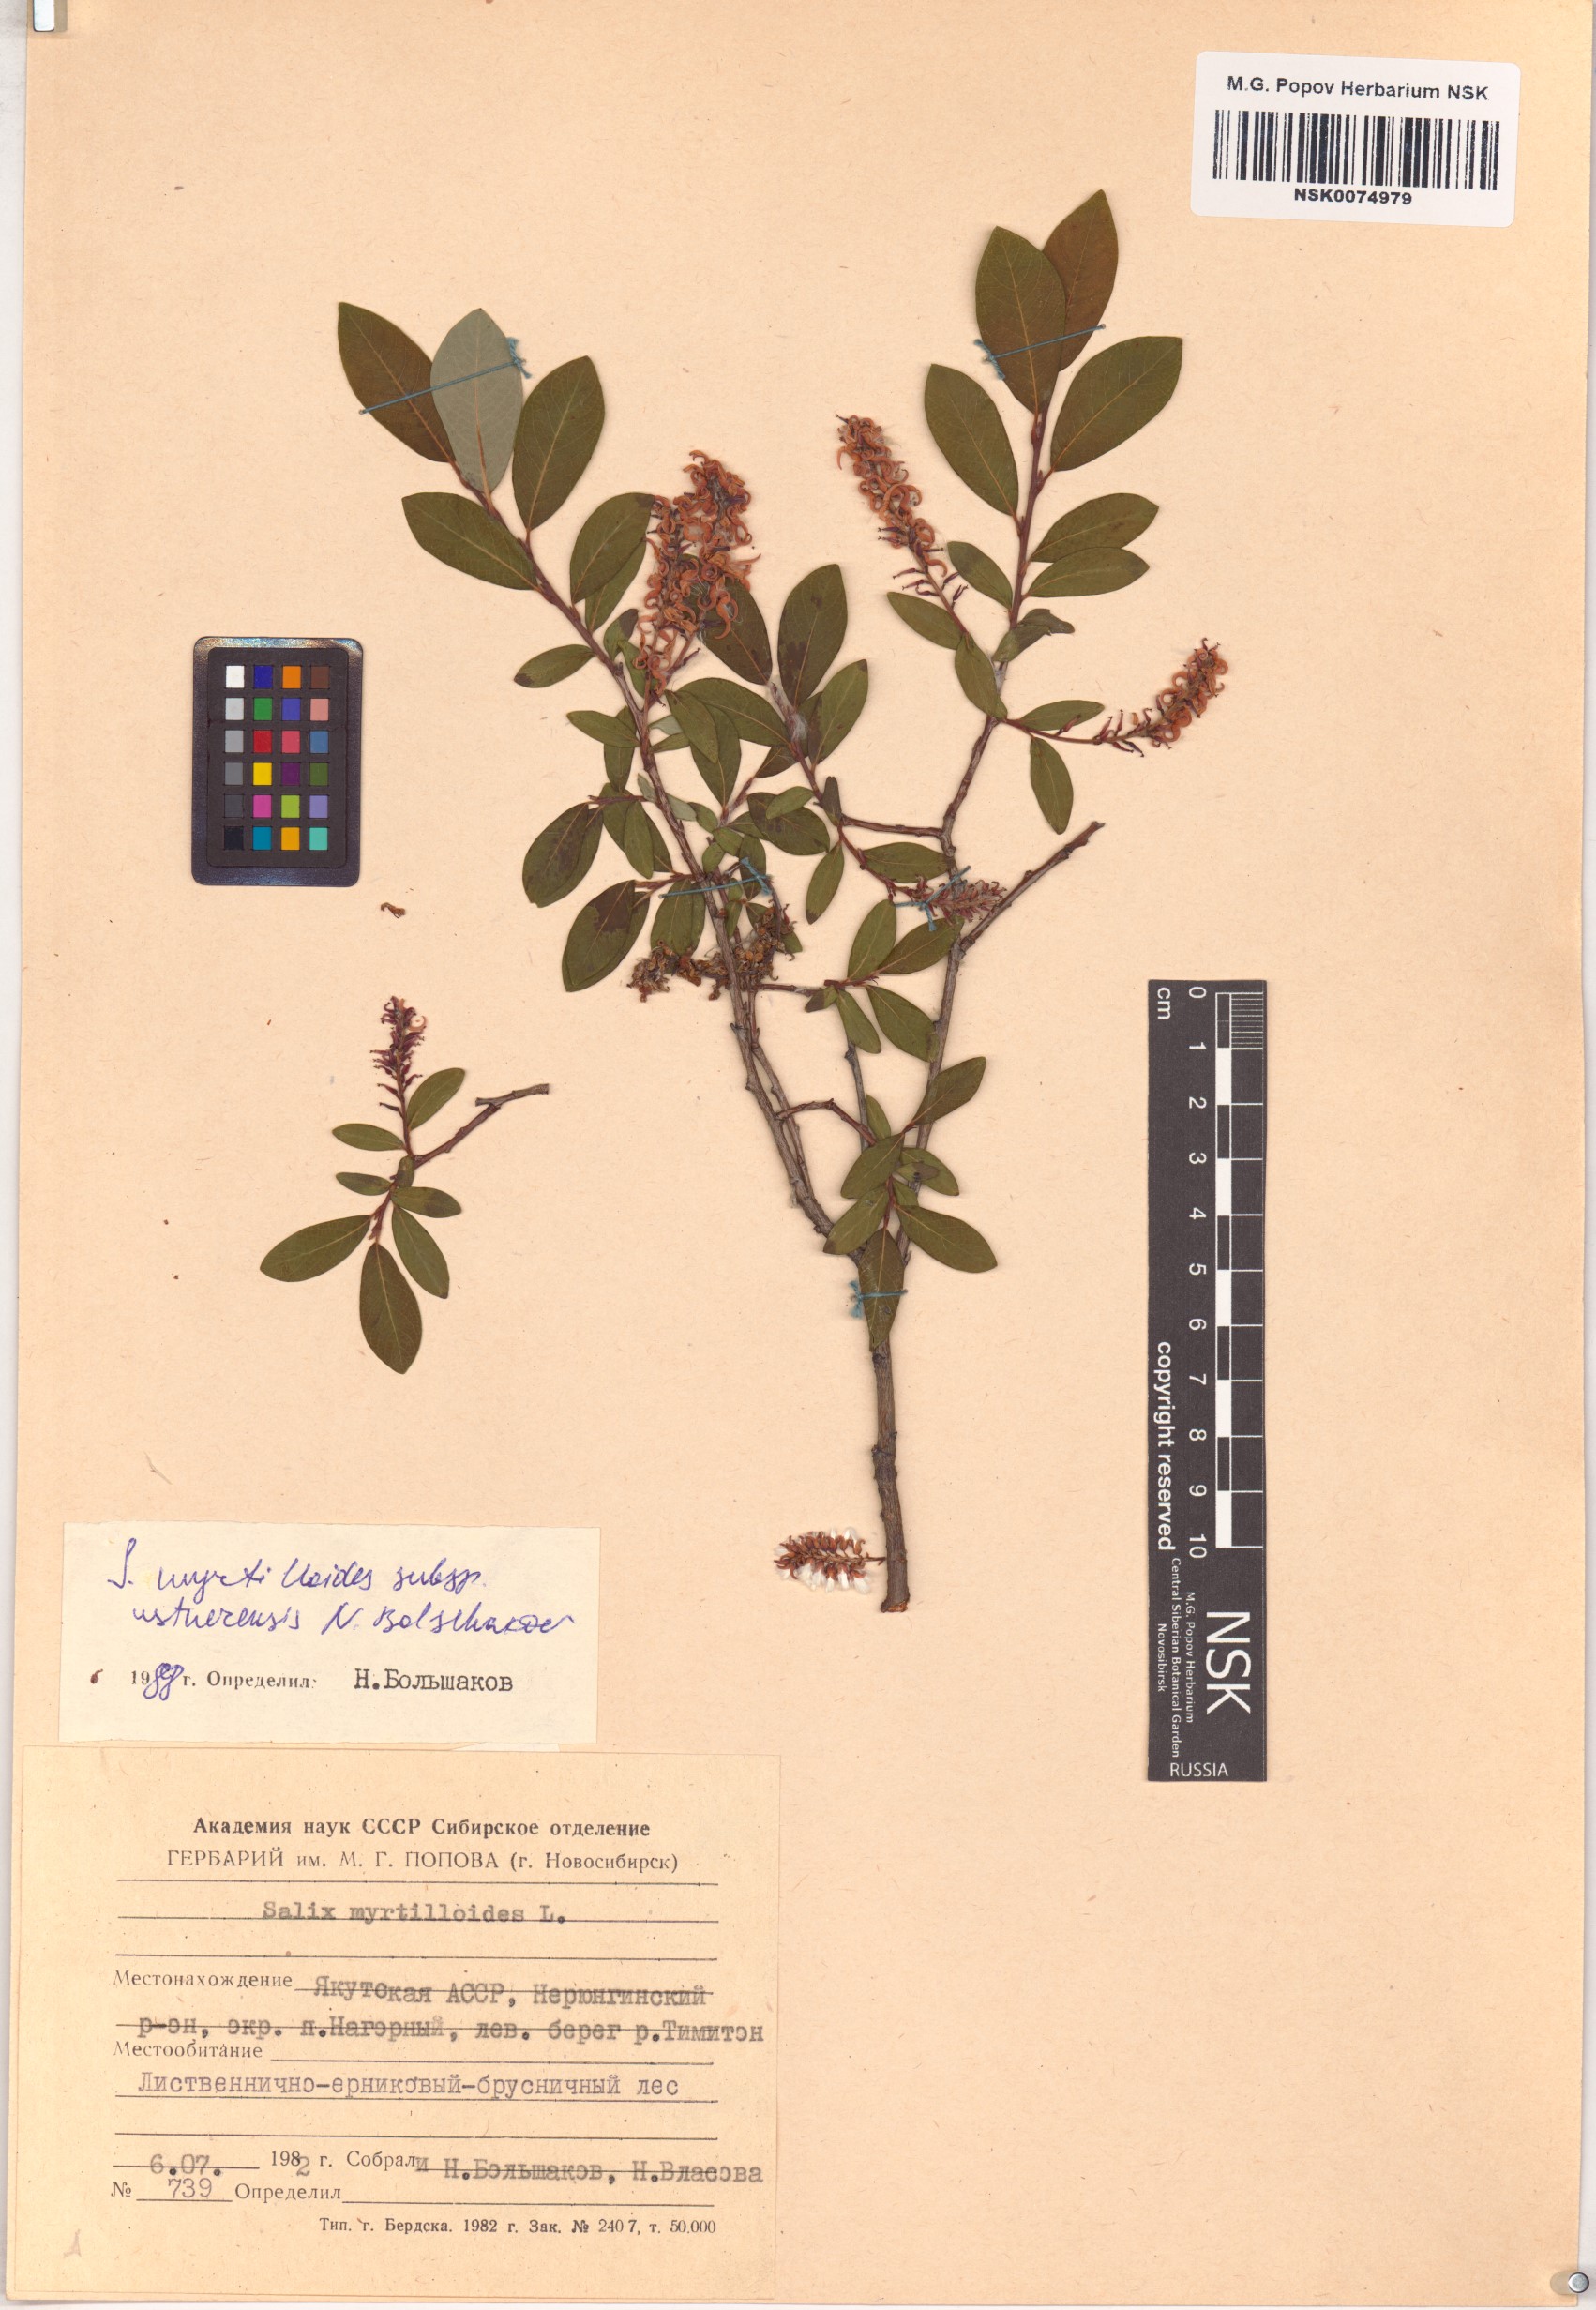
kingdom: Plantae
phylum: Tracheophyta
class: Magnoliopsida
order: Malpighiales
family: Salicaceae
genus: Salix
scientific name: Salix ustnerensis
